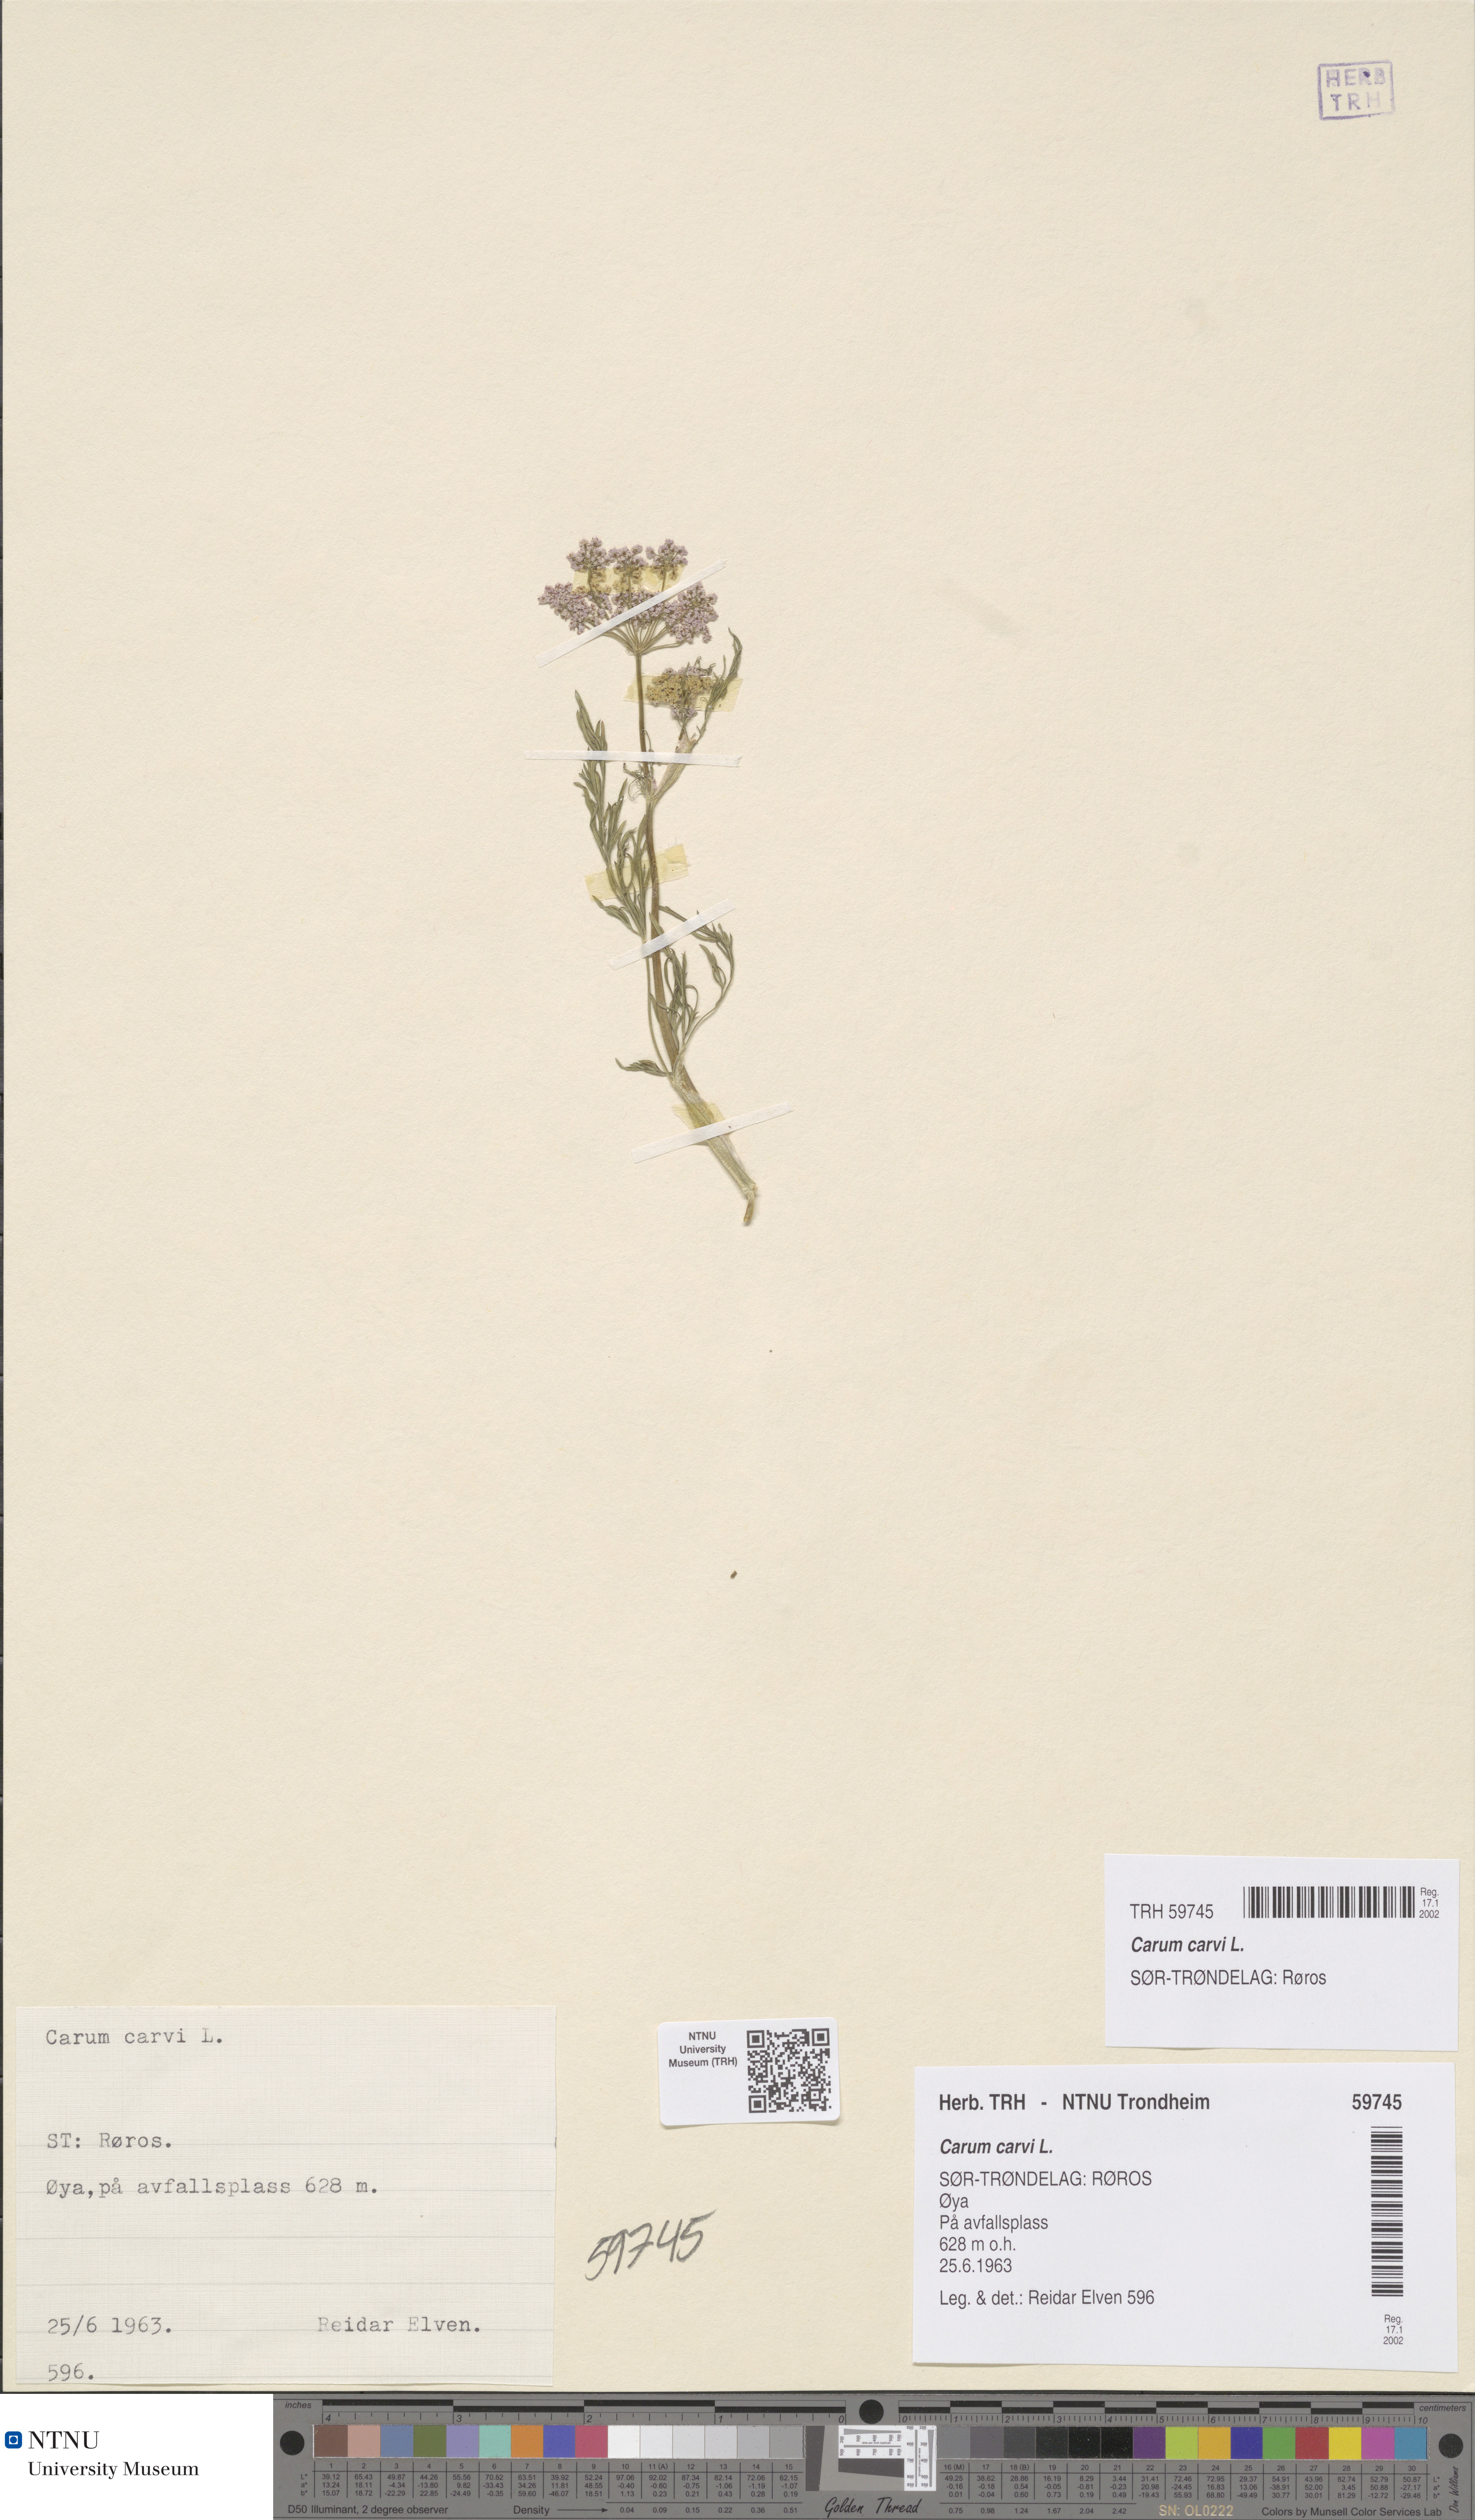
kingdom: Plantae
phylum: Tracheophyta
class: Magnoliopsida
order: Apiales
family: Apiaceae
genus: Carum
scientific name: Carum carvi
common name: Caraway
